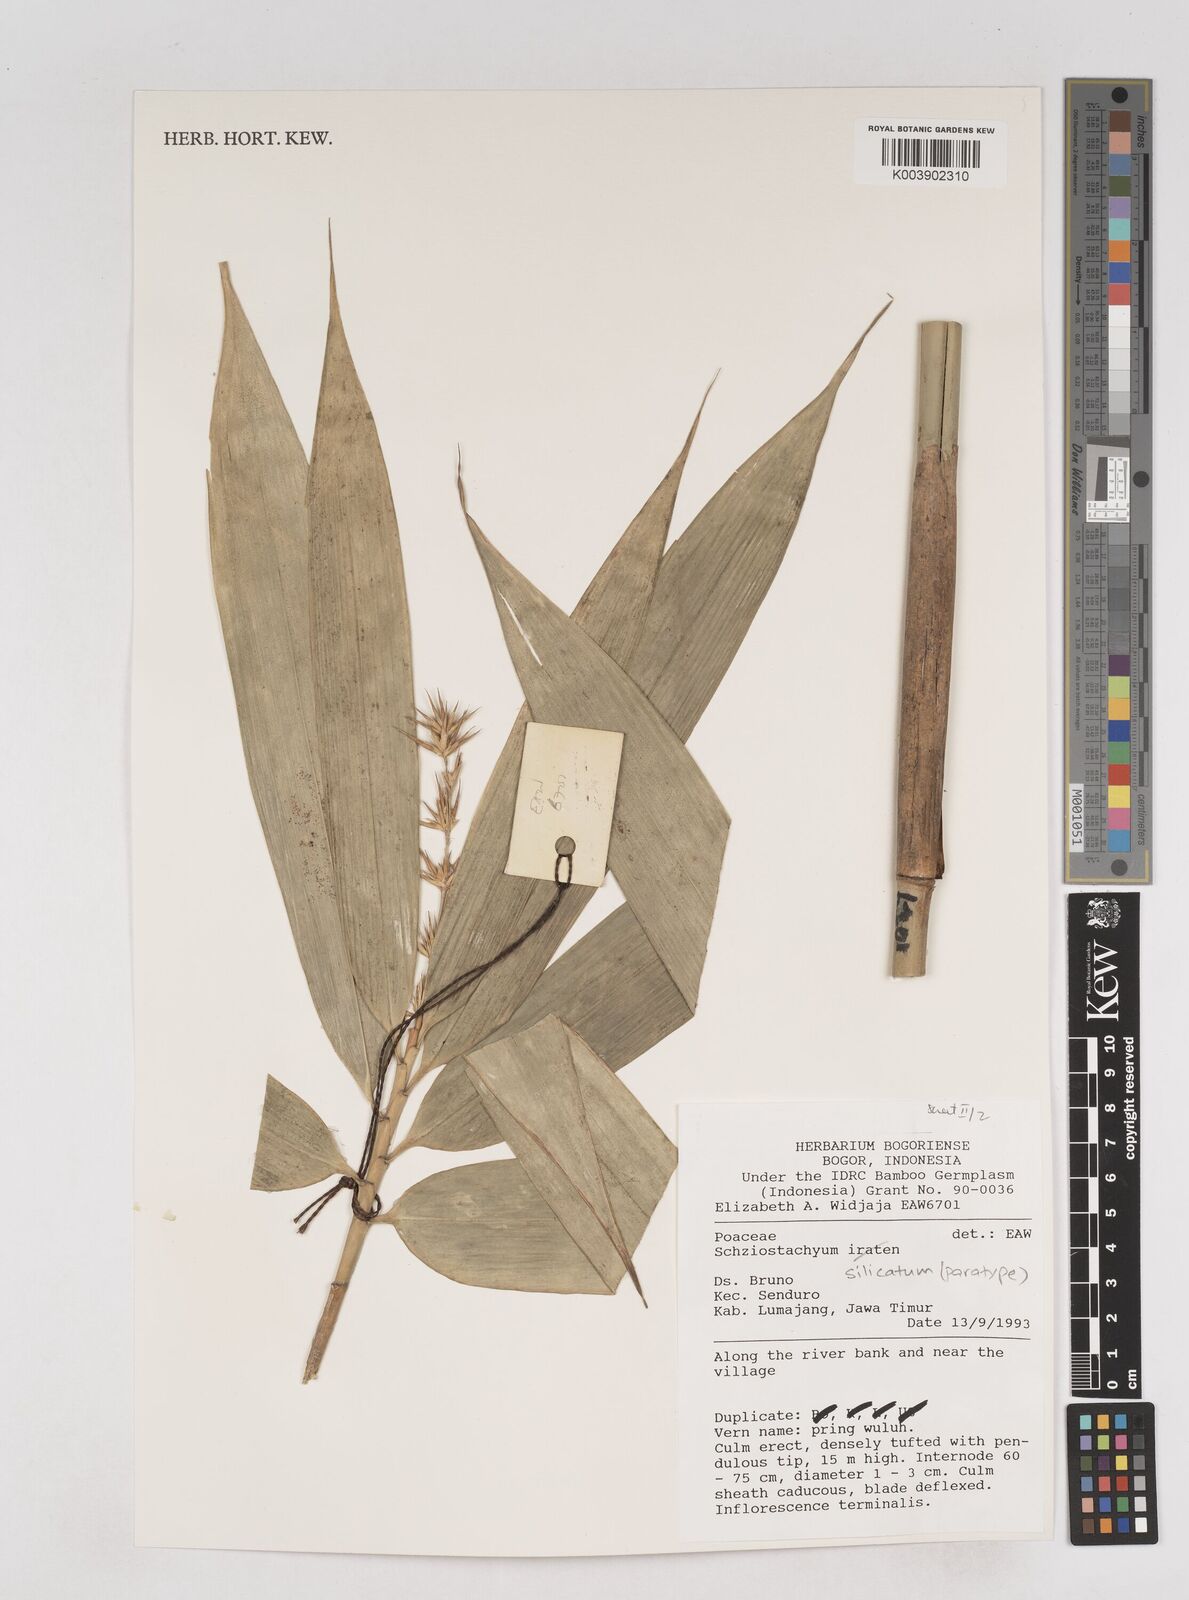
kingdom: Plantae
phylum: Tracheophyta
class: Liliopsida
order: Poales
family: Poaceae
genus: Schizostachyum
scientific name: Schizostachyum silicatum
